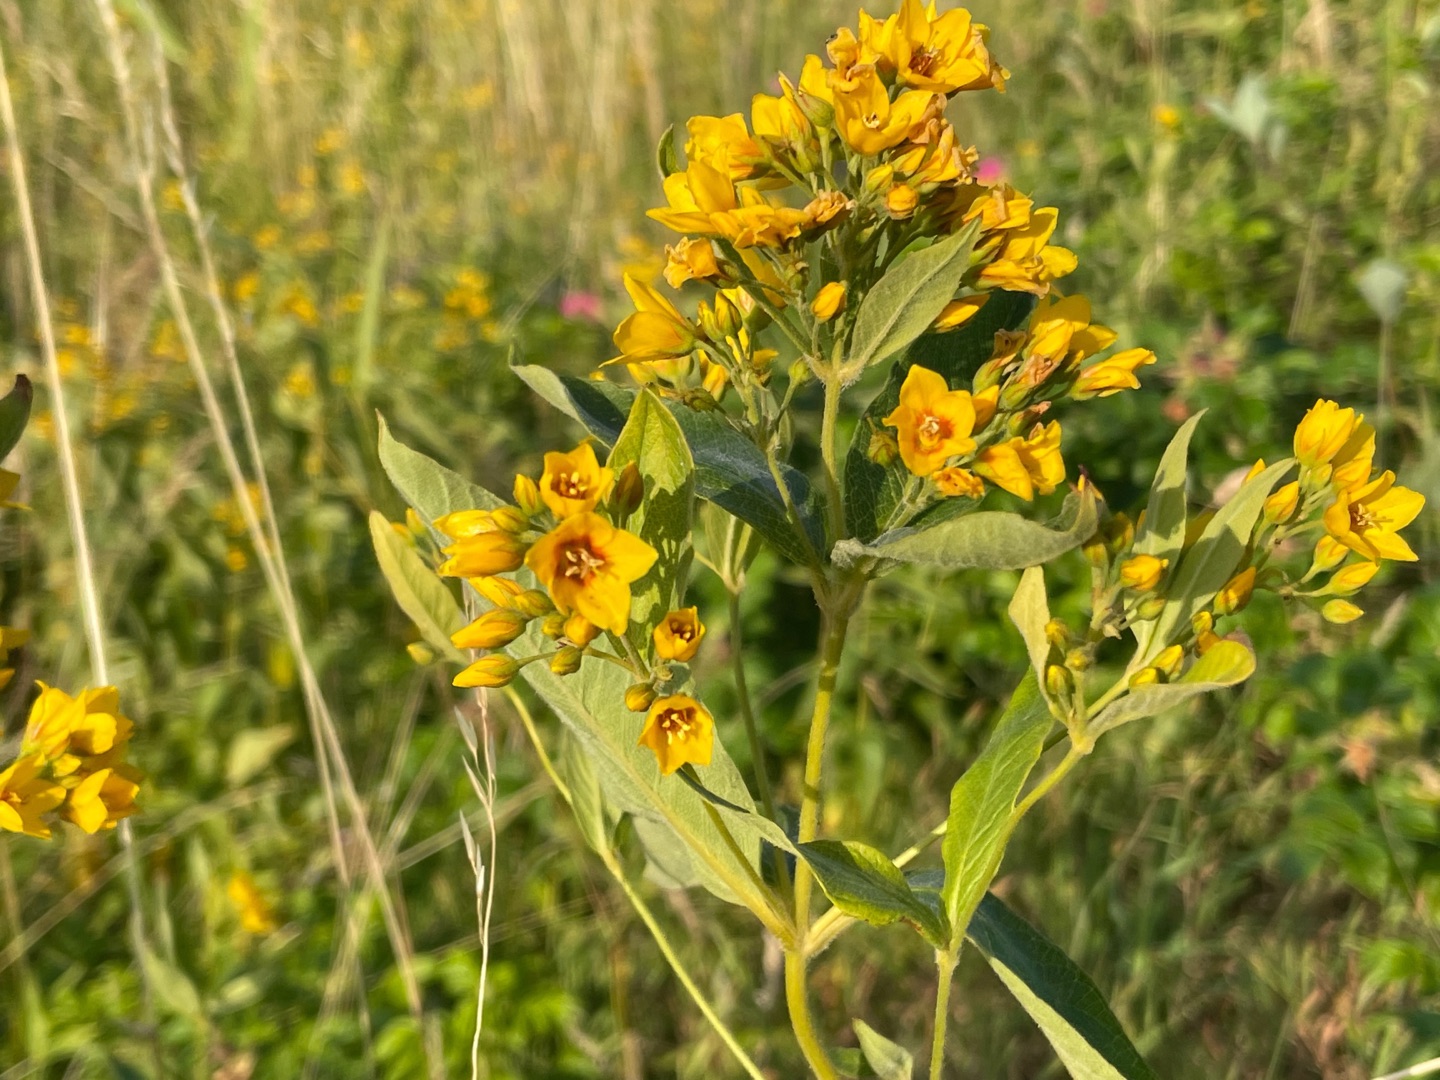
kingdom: Plantae
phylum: Tracheophyta
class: Magnoliopsida
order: Ericales
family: Primulaceae
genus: Lysimachia
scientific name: Lysimachia vulgaris
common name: Almindelig fredløs
